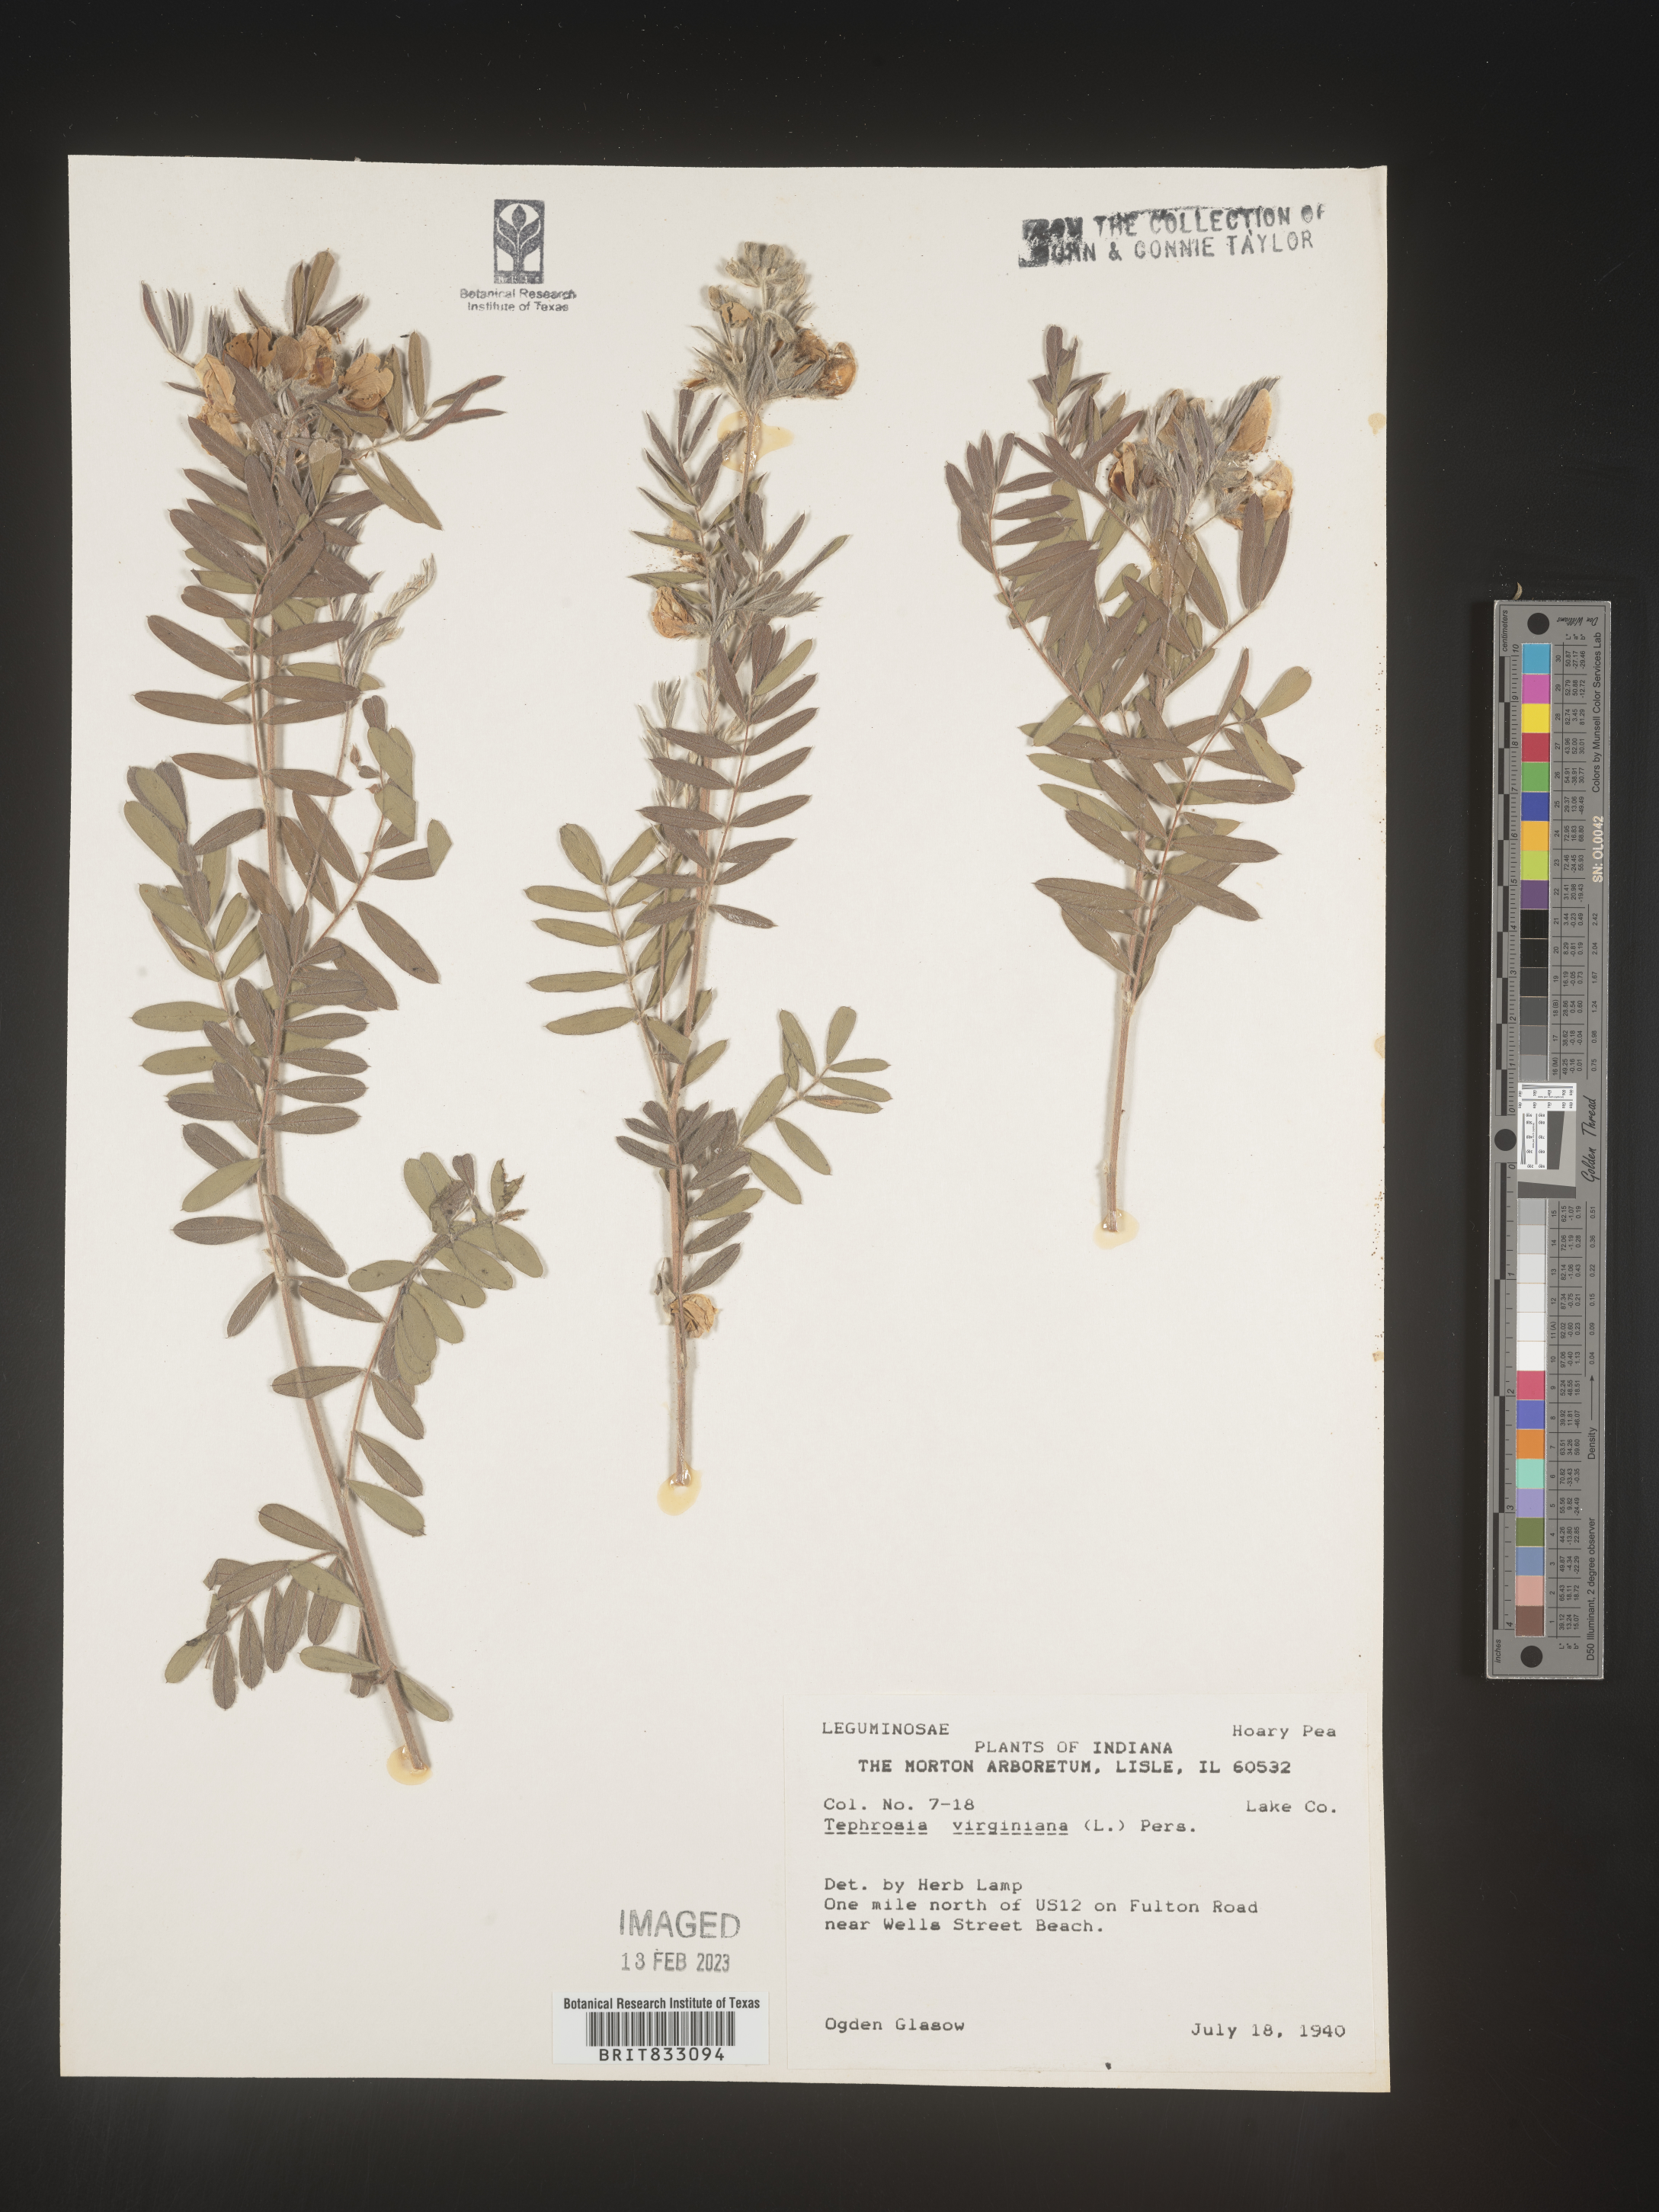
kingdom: Plantae
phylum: Tracheophyta
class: Magnoliopsida
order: Fabales
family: Fabaceae
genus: Tephrosia
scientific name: Tephrosia virginiana
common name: Rabbit-pea
